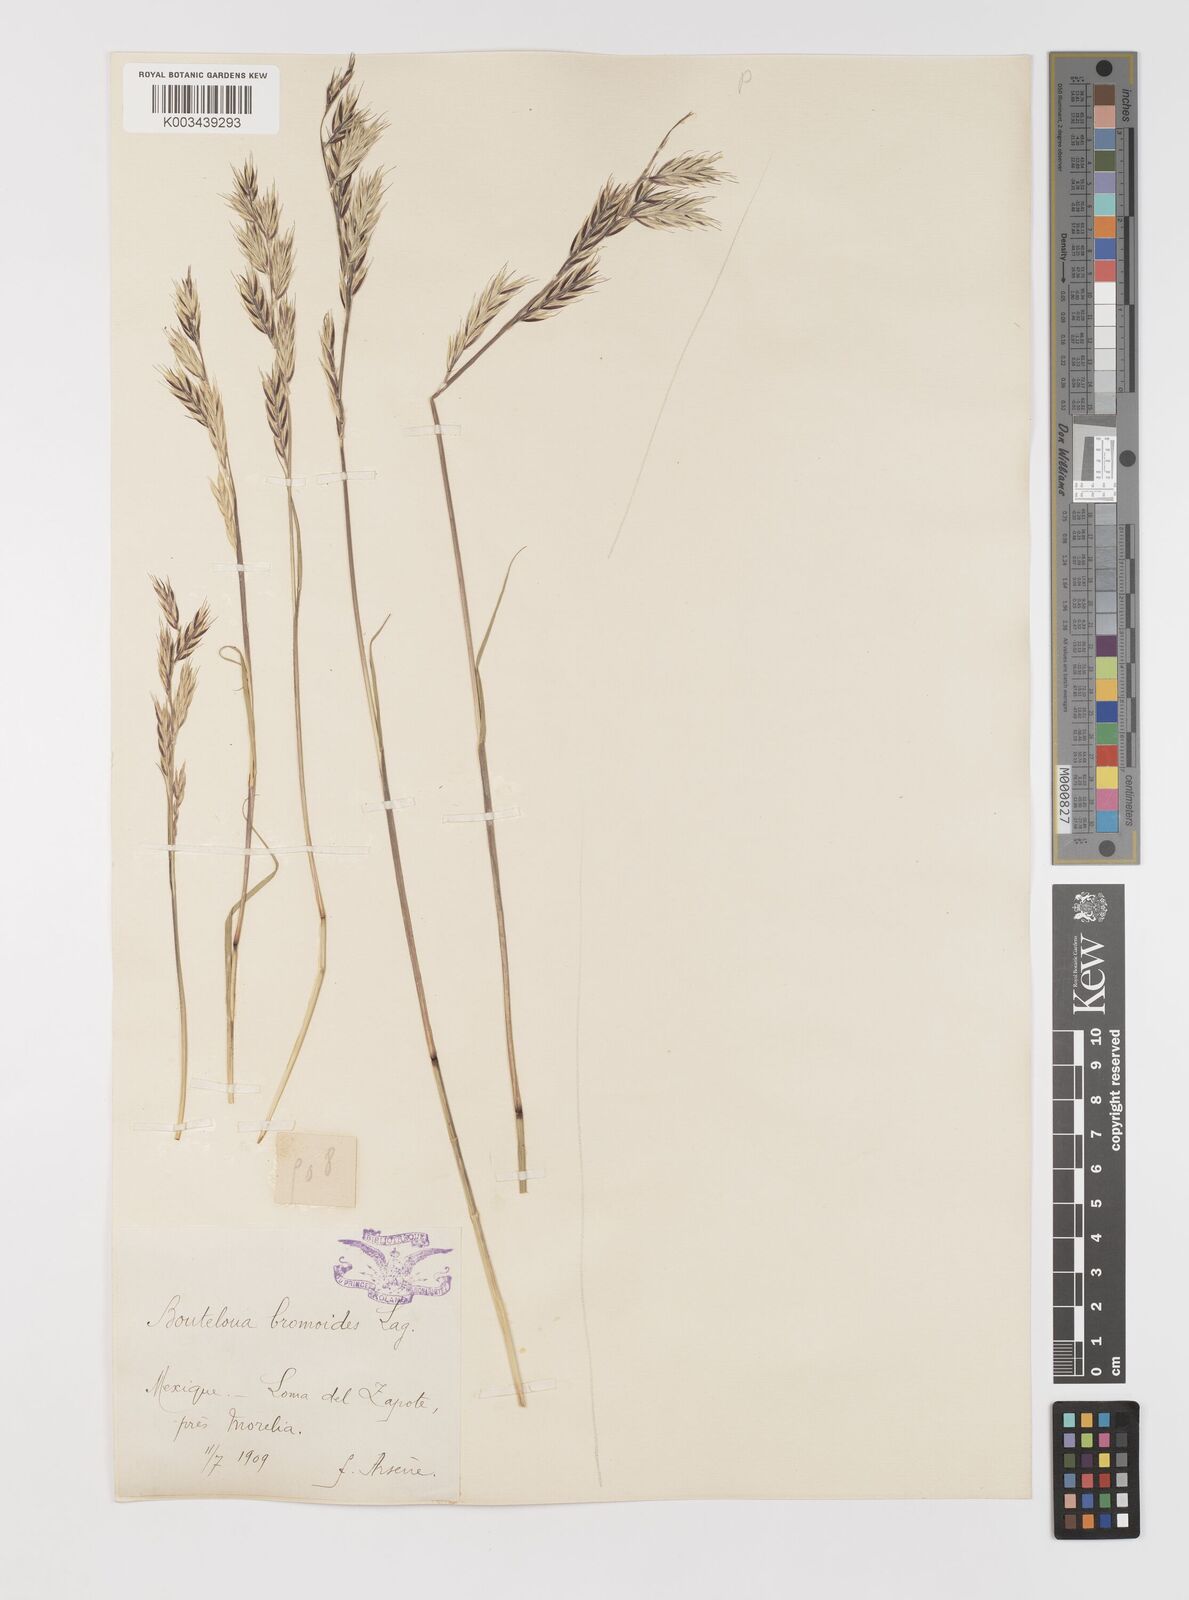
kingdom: Plantae
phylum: Tracheophyta
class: Liliopsida
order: Poales
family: Poaceae
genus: Bouteloua
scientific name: Bouteloua repens
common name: Slender grama
